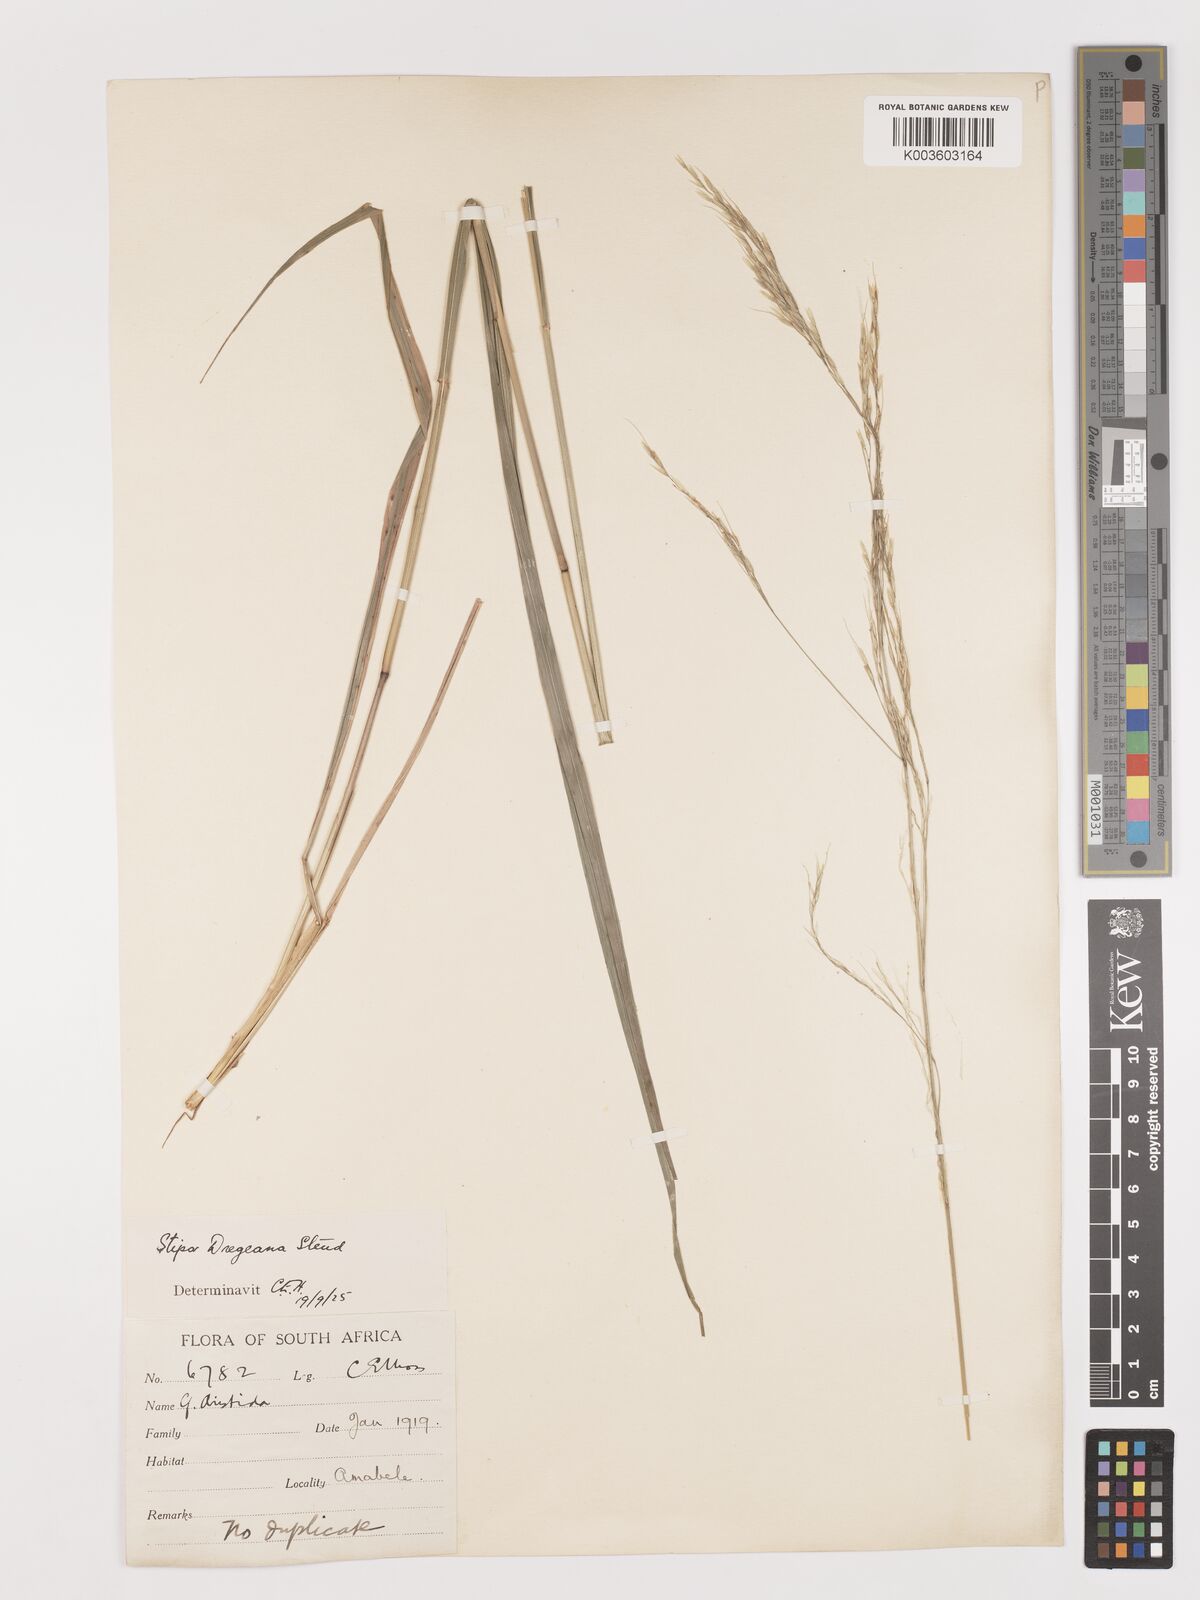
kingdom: Plantae
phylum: Tracheophyta
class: Liliopsida
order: Poales
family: Poaceae
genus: Stipa
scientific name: Stipa dregeana
